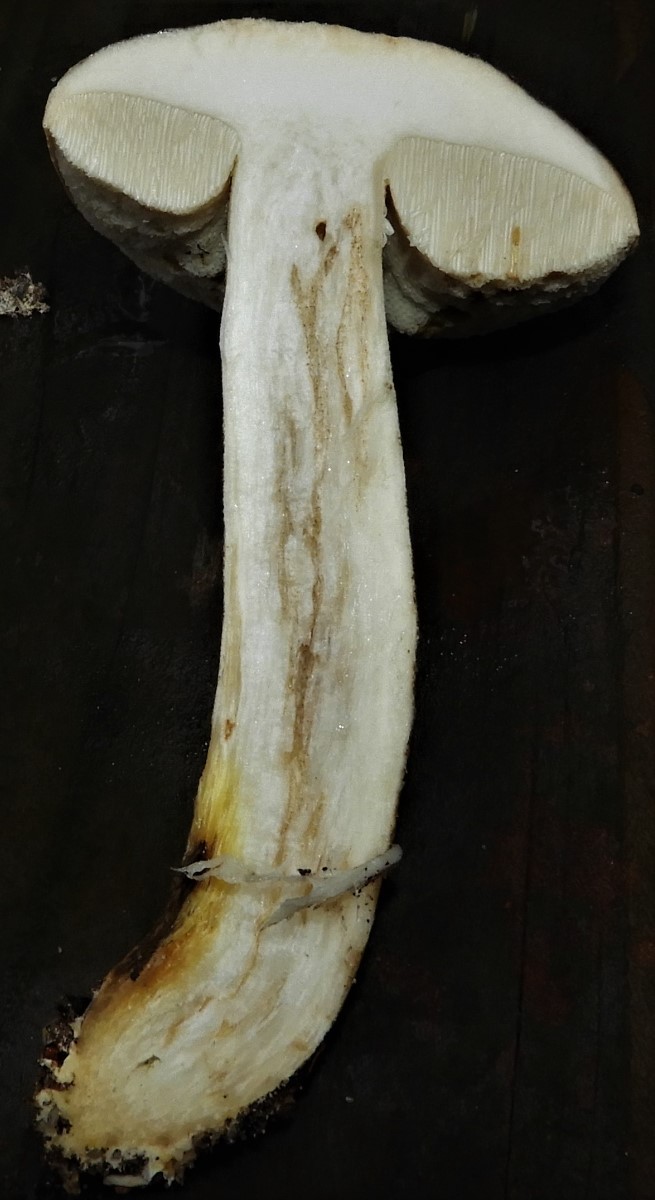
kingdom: Fungi
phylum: Basidiomycota
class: Agaricomycetes
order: Boletales
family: Boletaceae
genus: Leccinum
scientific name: Leccinum scabrum
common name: brun skælrørhat
